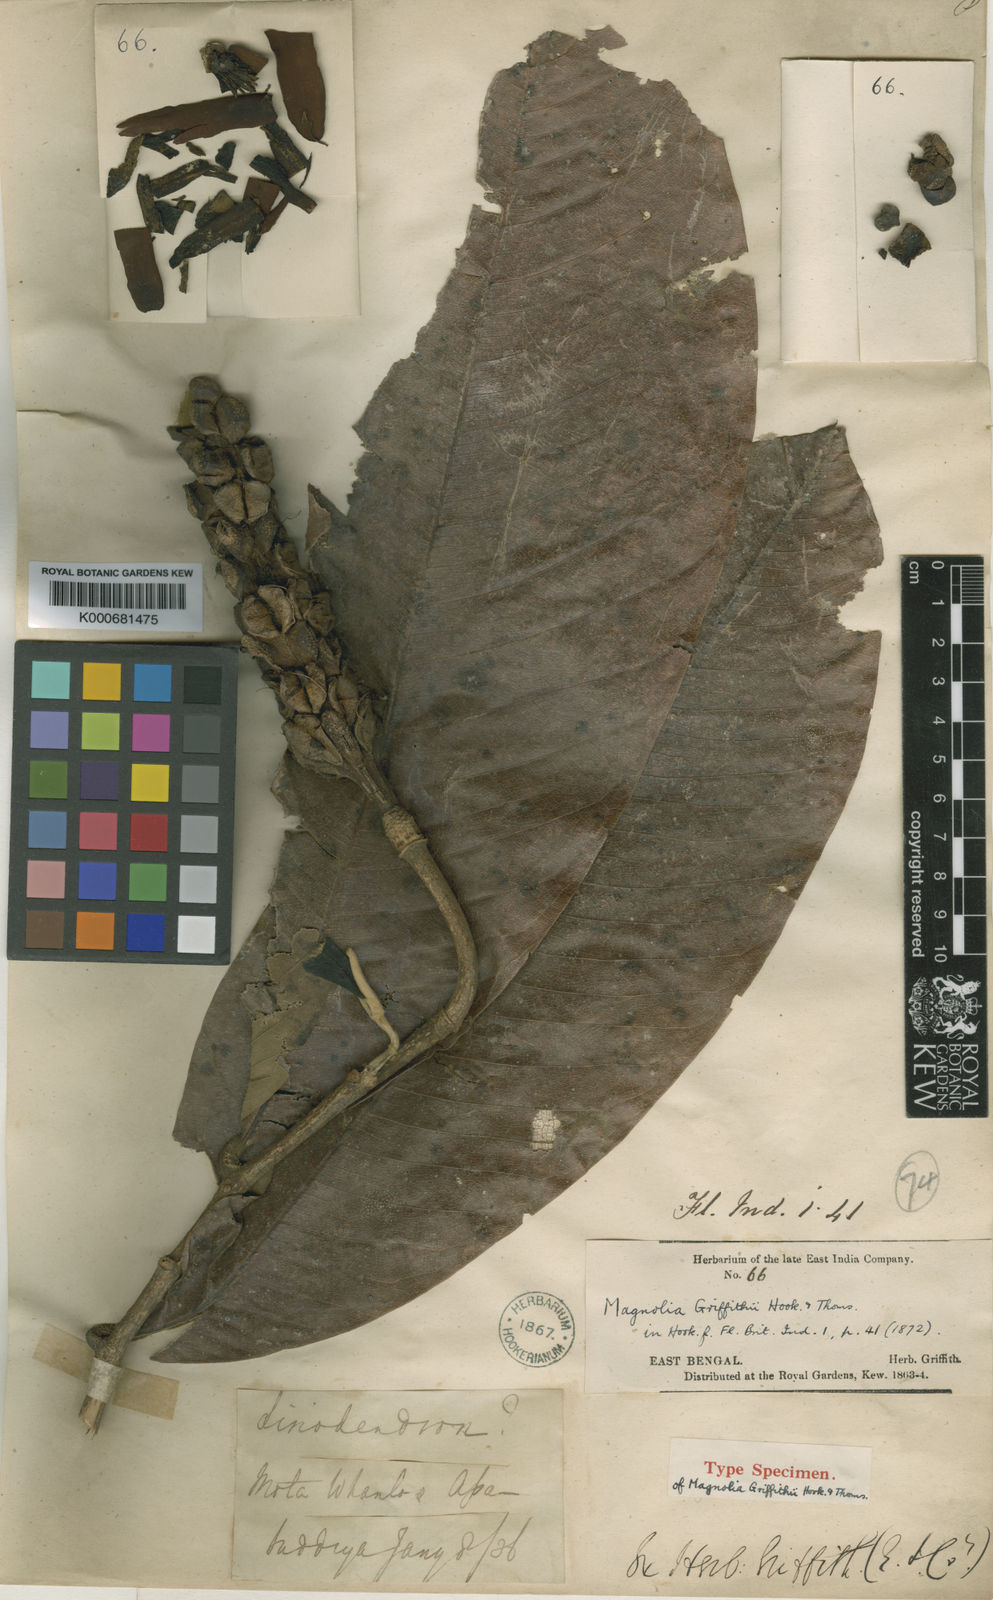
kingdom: Plantae
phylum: Tracheophyta
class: Magnoliopsida
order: Magnoliales
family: Magnoliaceae
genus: Magnolia
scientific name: Magnolia griffithii
